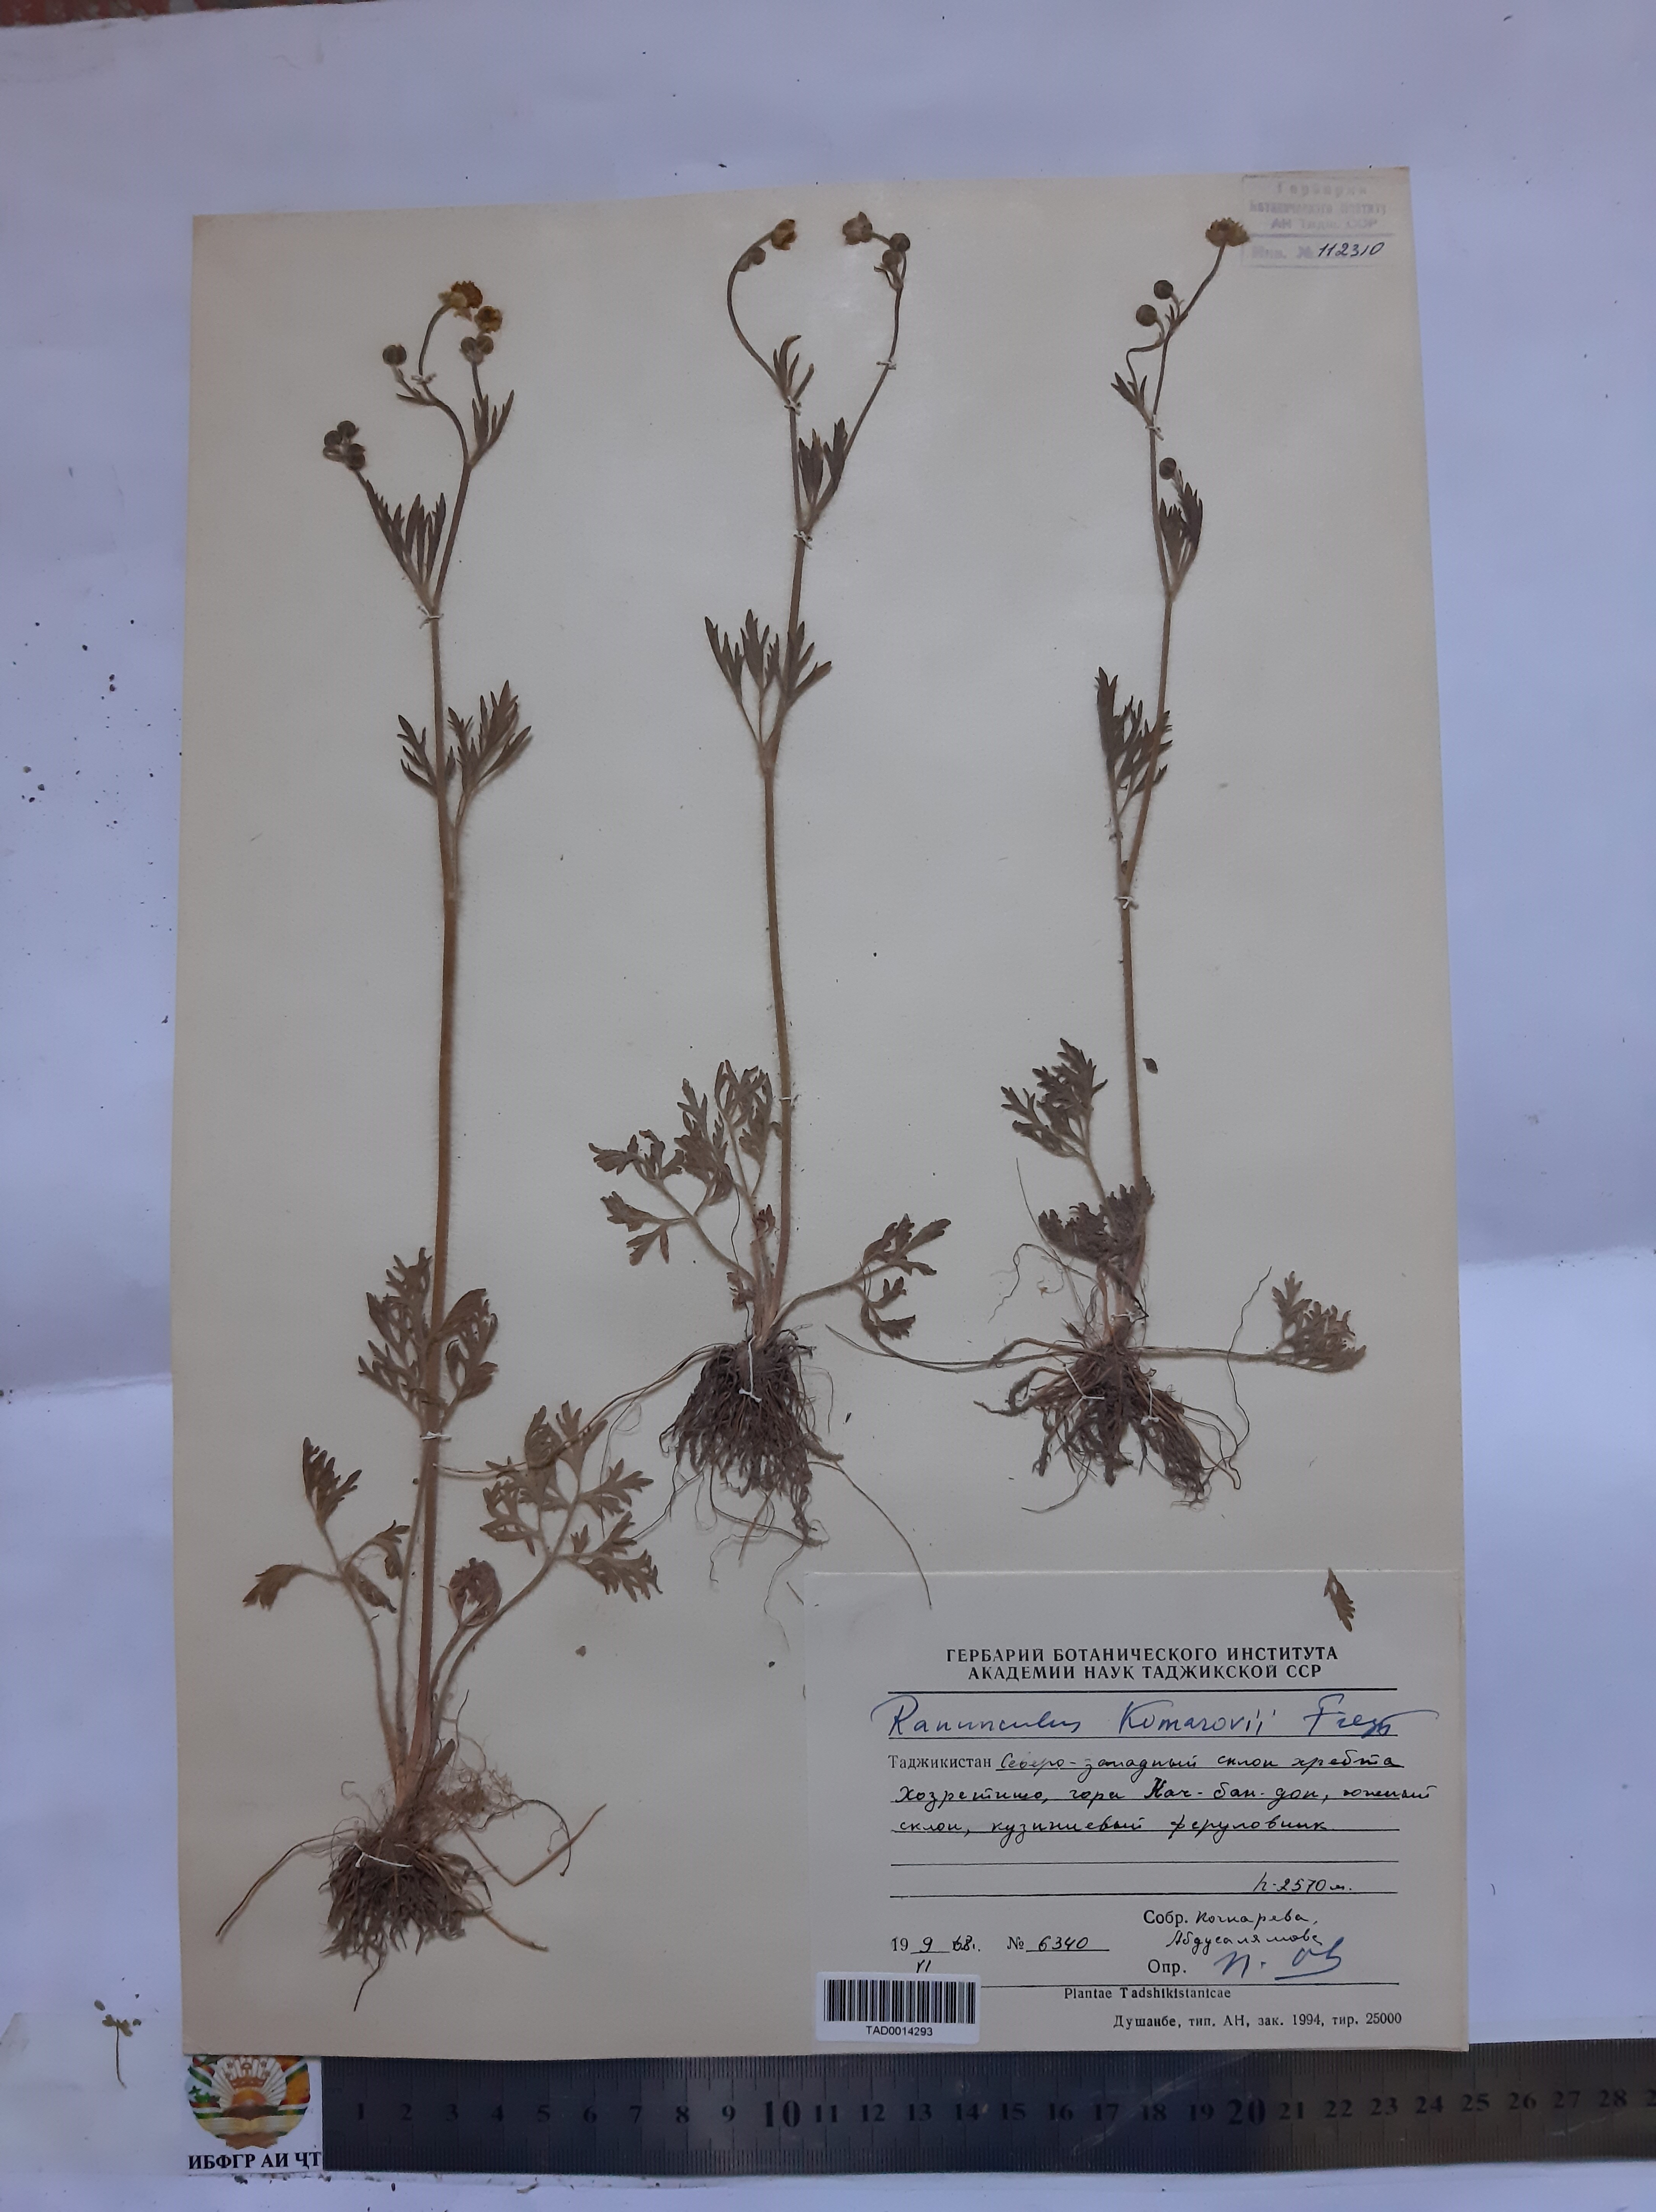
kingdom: Plantae
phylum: Tracheophyta
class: Magnoliopsida
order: Ranunculales
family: Ranunculaceae
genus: Ranunculus
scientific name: Ranunculus komarovii
